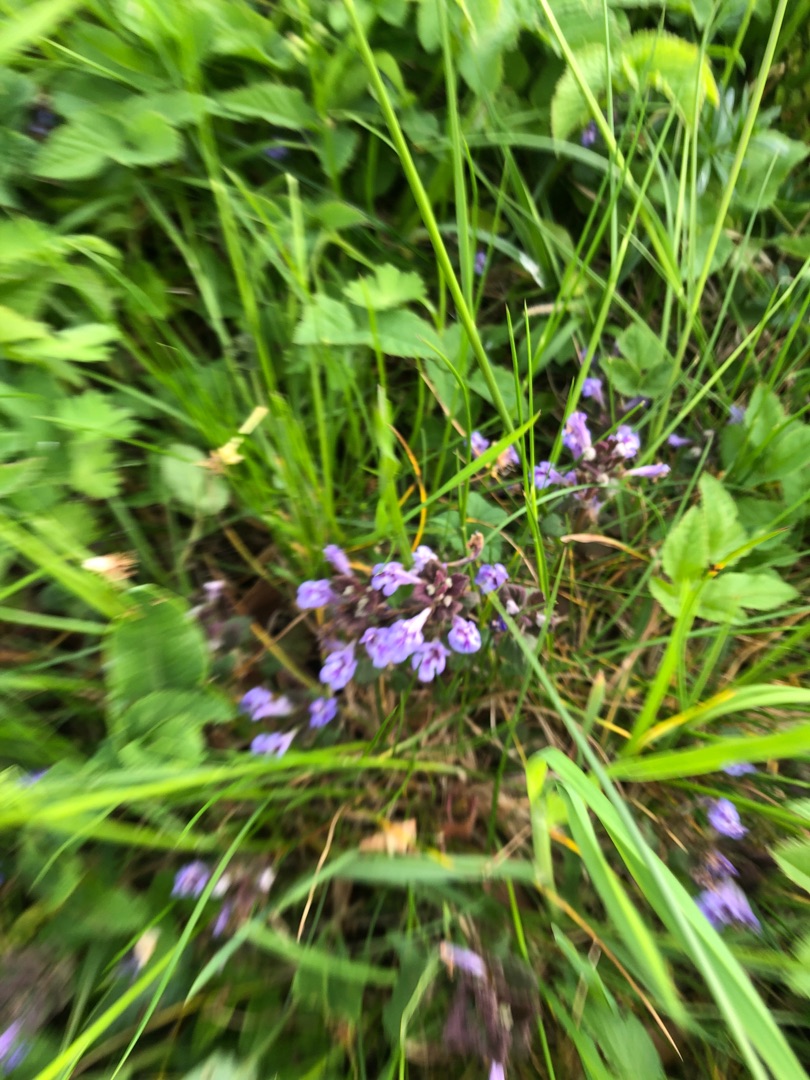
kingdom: Plantae
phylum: Tracheophyta
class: Magnoliopsida
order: Lamiales
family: Lamiaceae
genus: Glechoma
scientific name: Glechoma hederacea
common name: Korsknap
